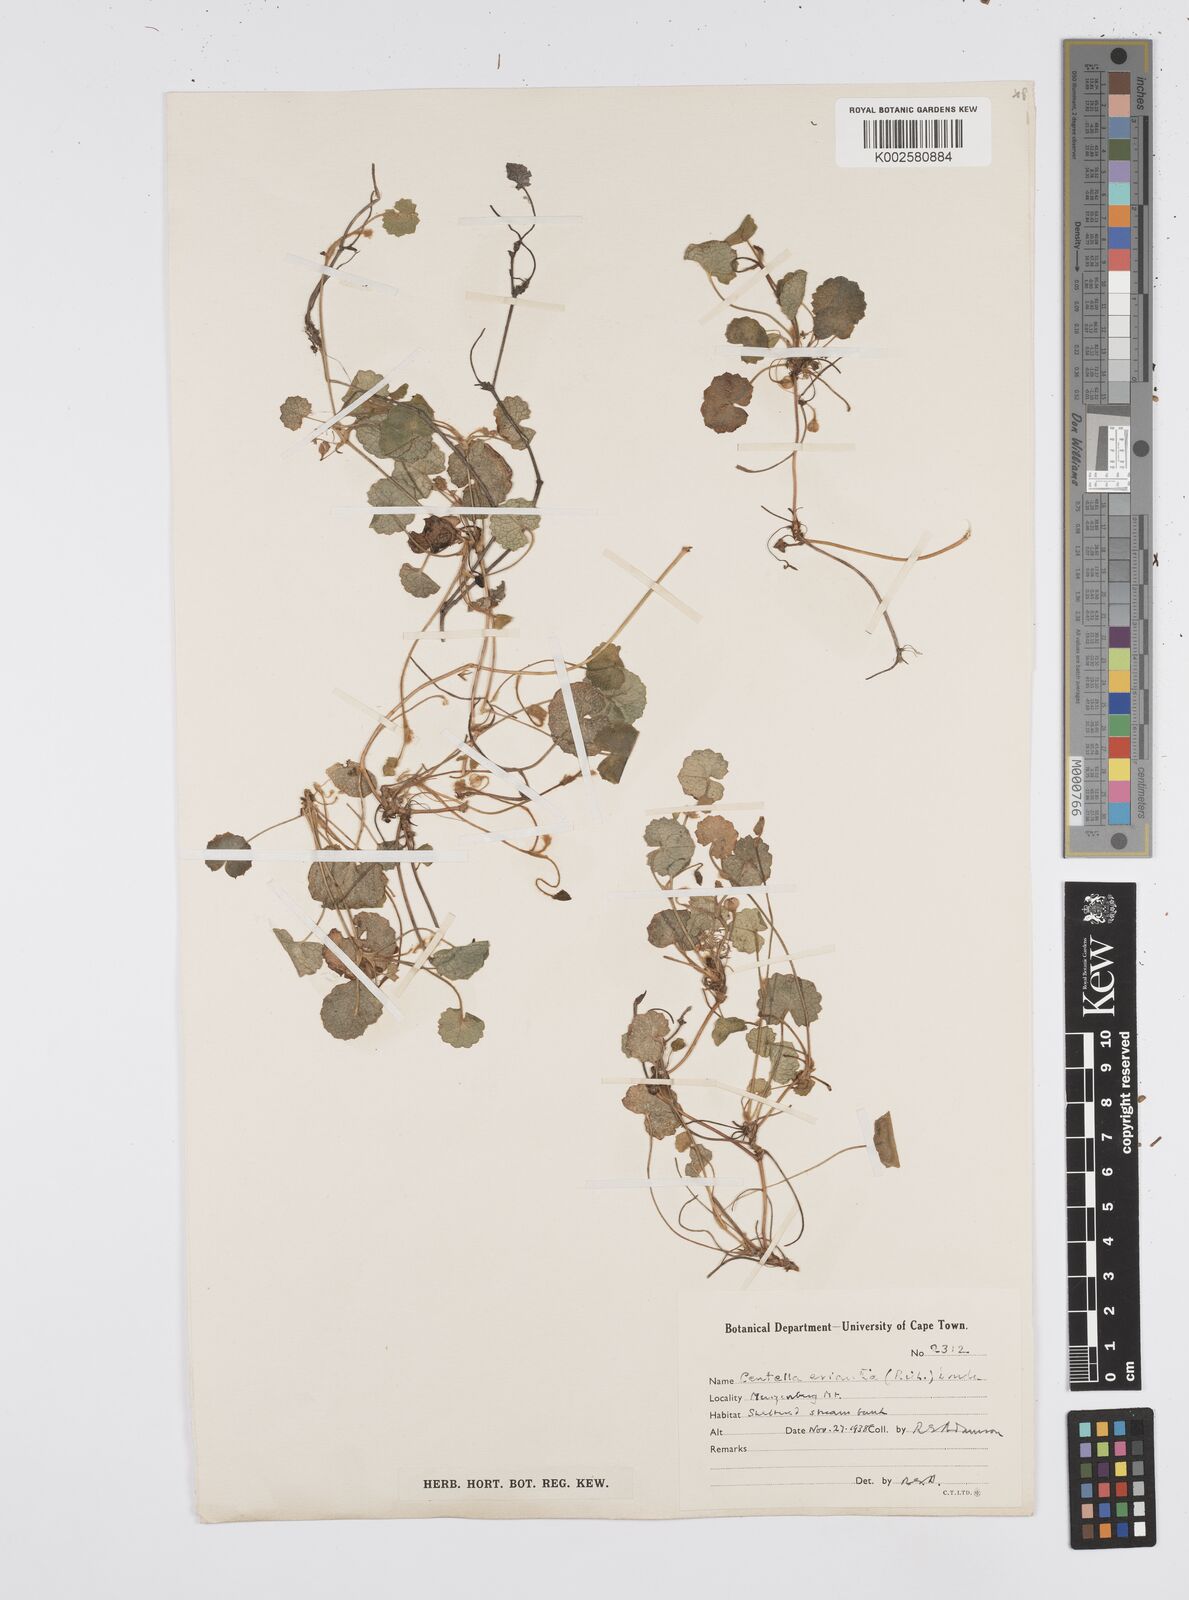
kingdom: Plantae
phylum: Tracheophyta
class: Magnoliopsida
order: Apiales
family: Apiaceae
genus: Centella
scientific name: Centella eriantha
